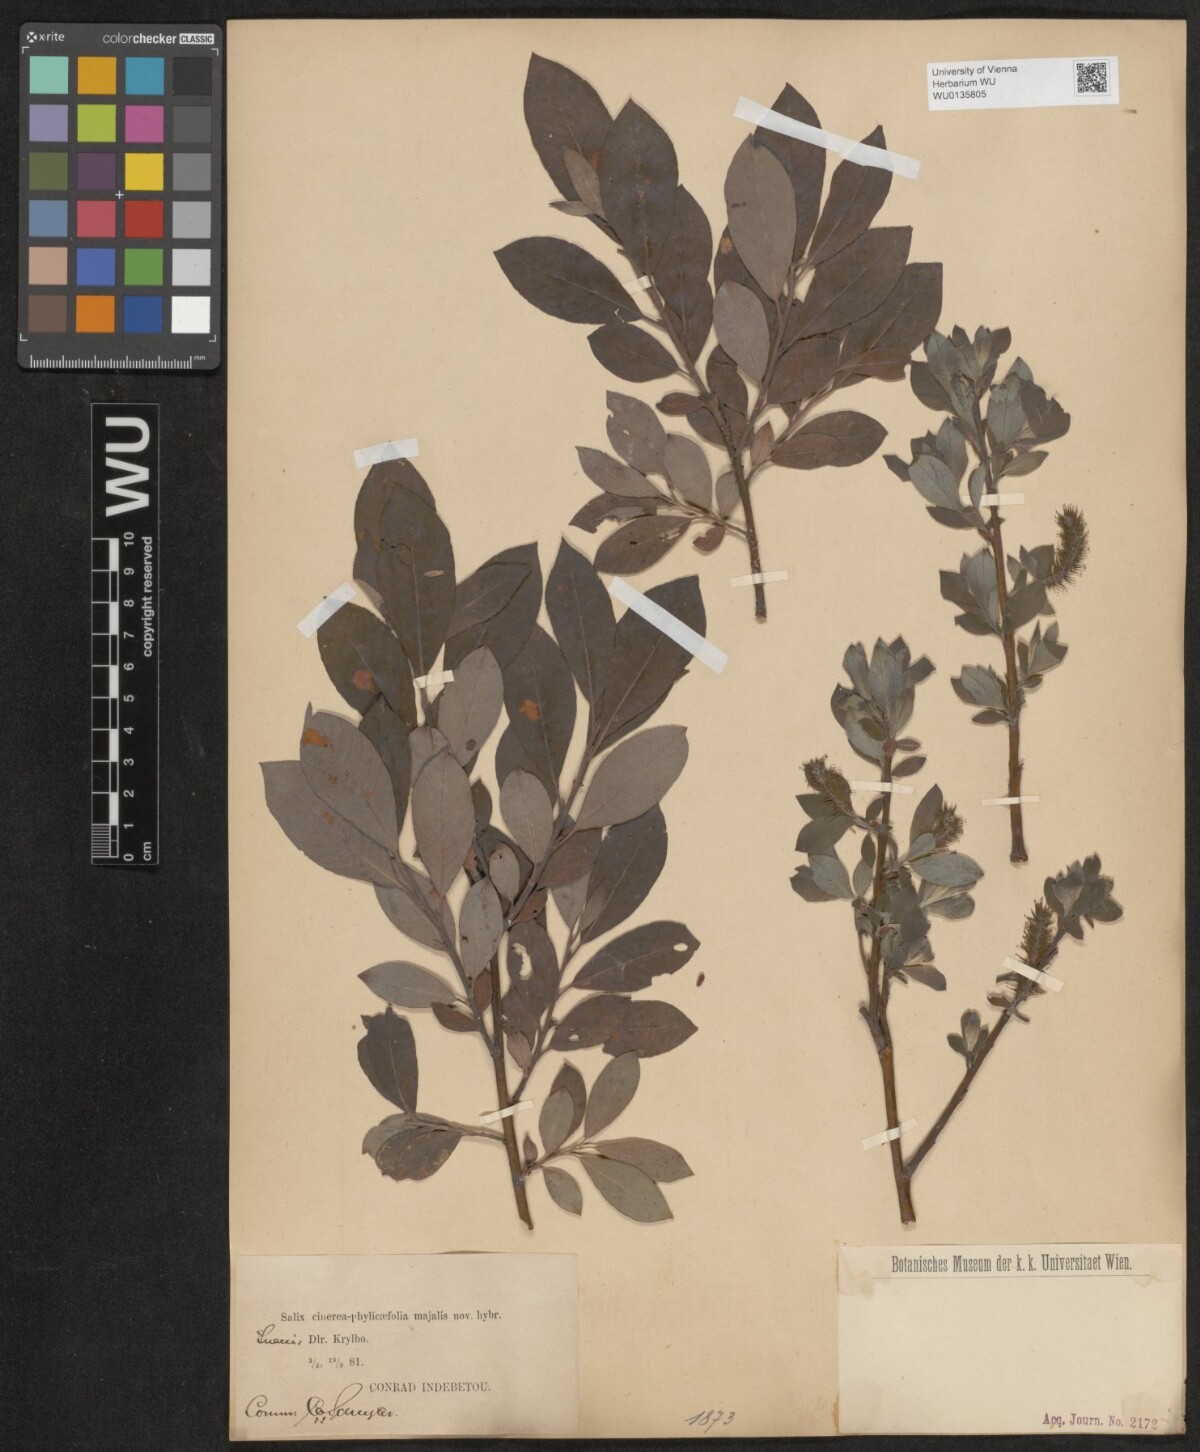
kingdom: Plantae
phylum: Tracheophyta
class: Magnoliopsida
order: Malpighiales
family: Salicaceae
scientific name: Salicaceae
